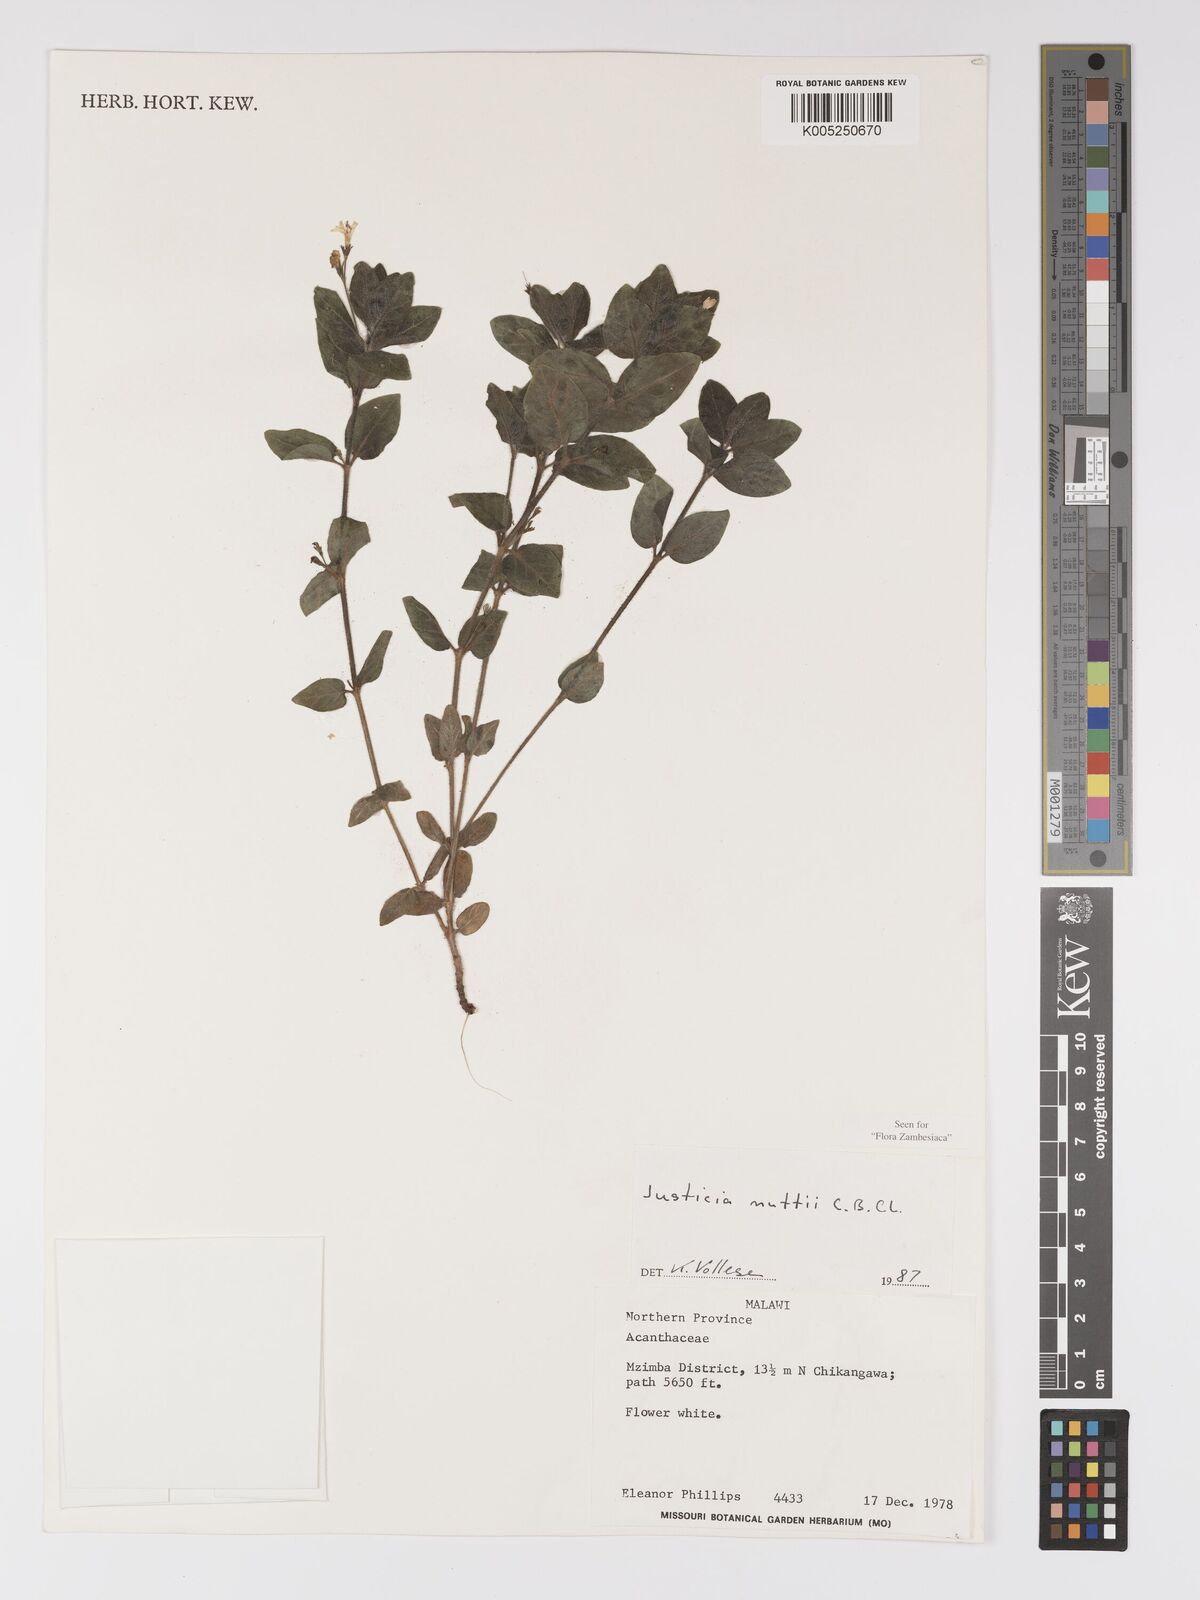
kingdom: Plantae
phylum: Tracheophyta
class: Magnoliopsida
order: Lamiales
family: Acanthaceae
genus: Justicia
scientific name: Justicia nuttii
